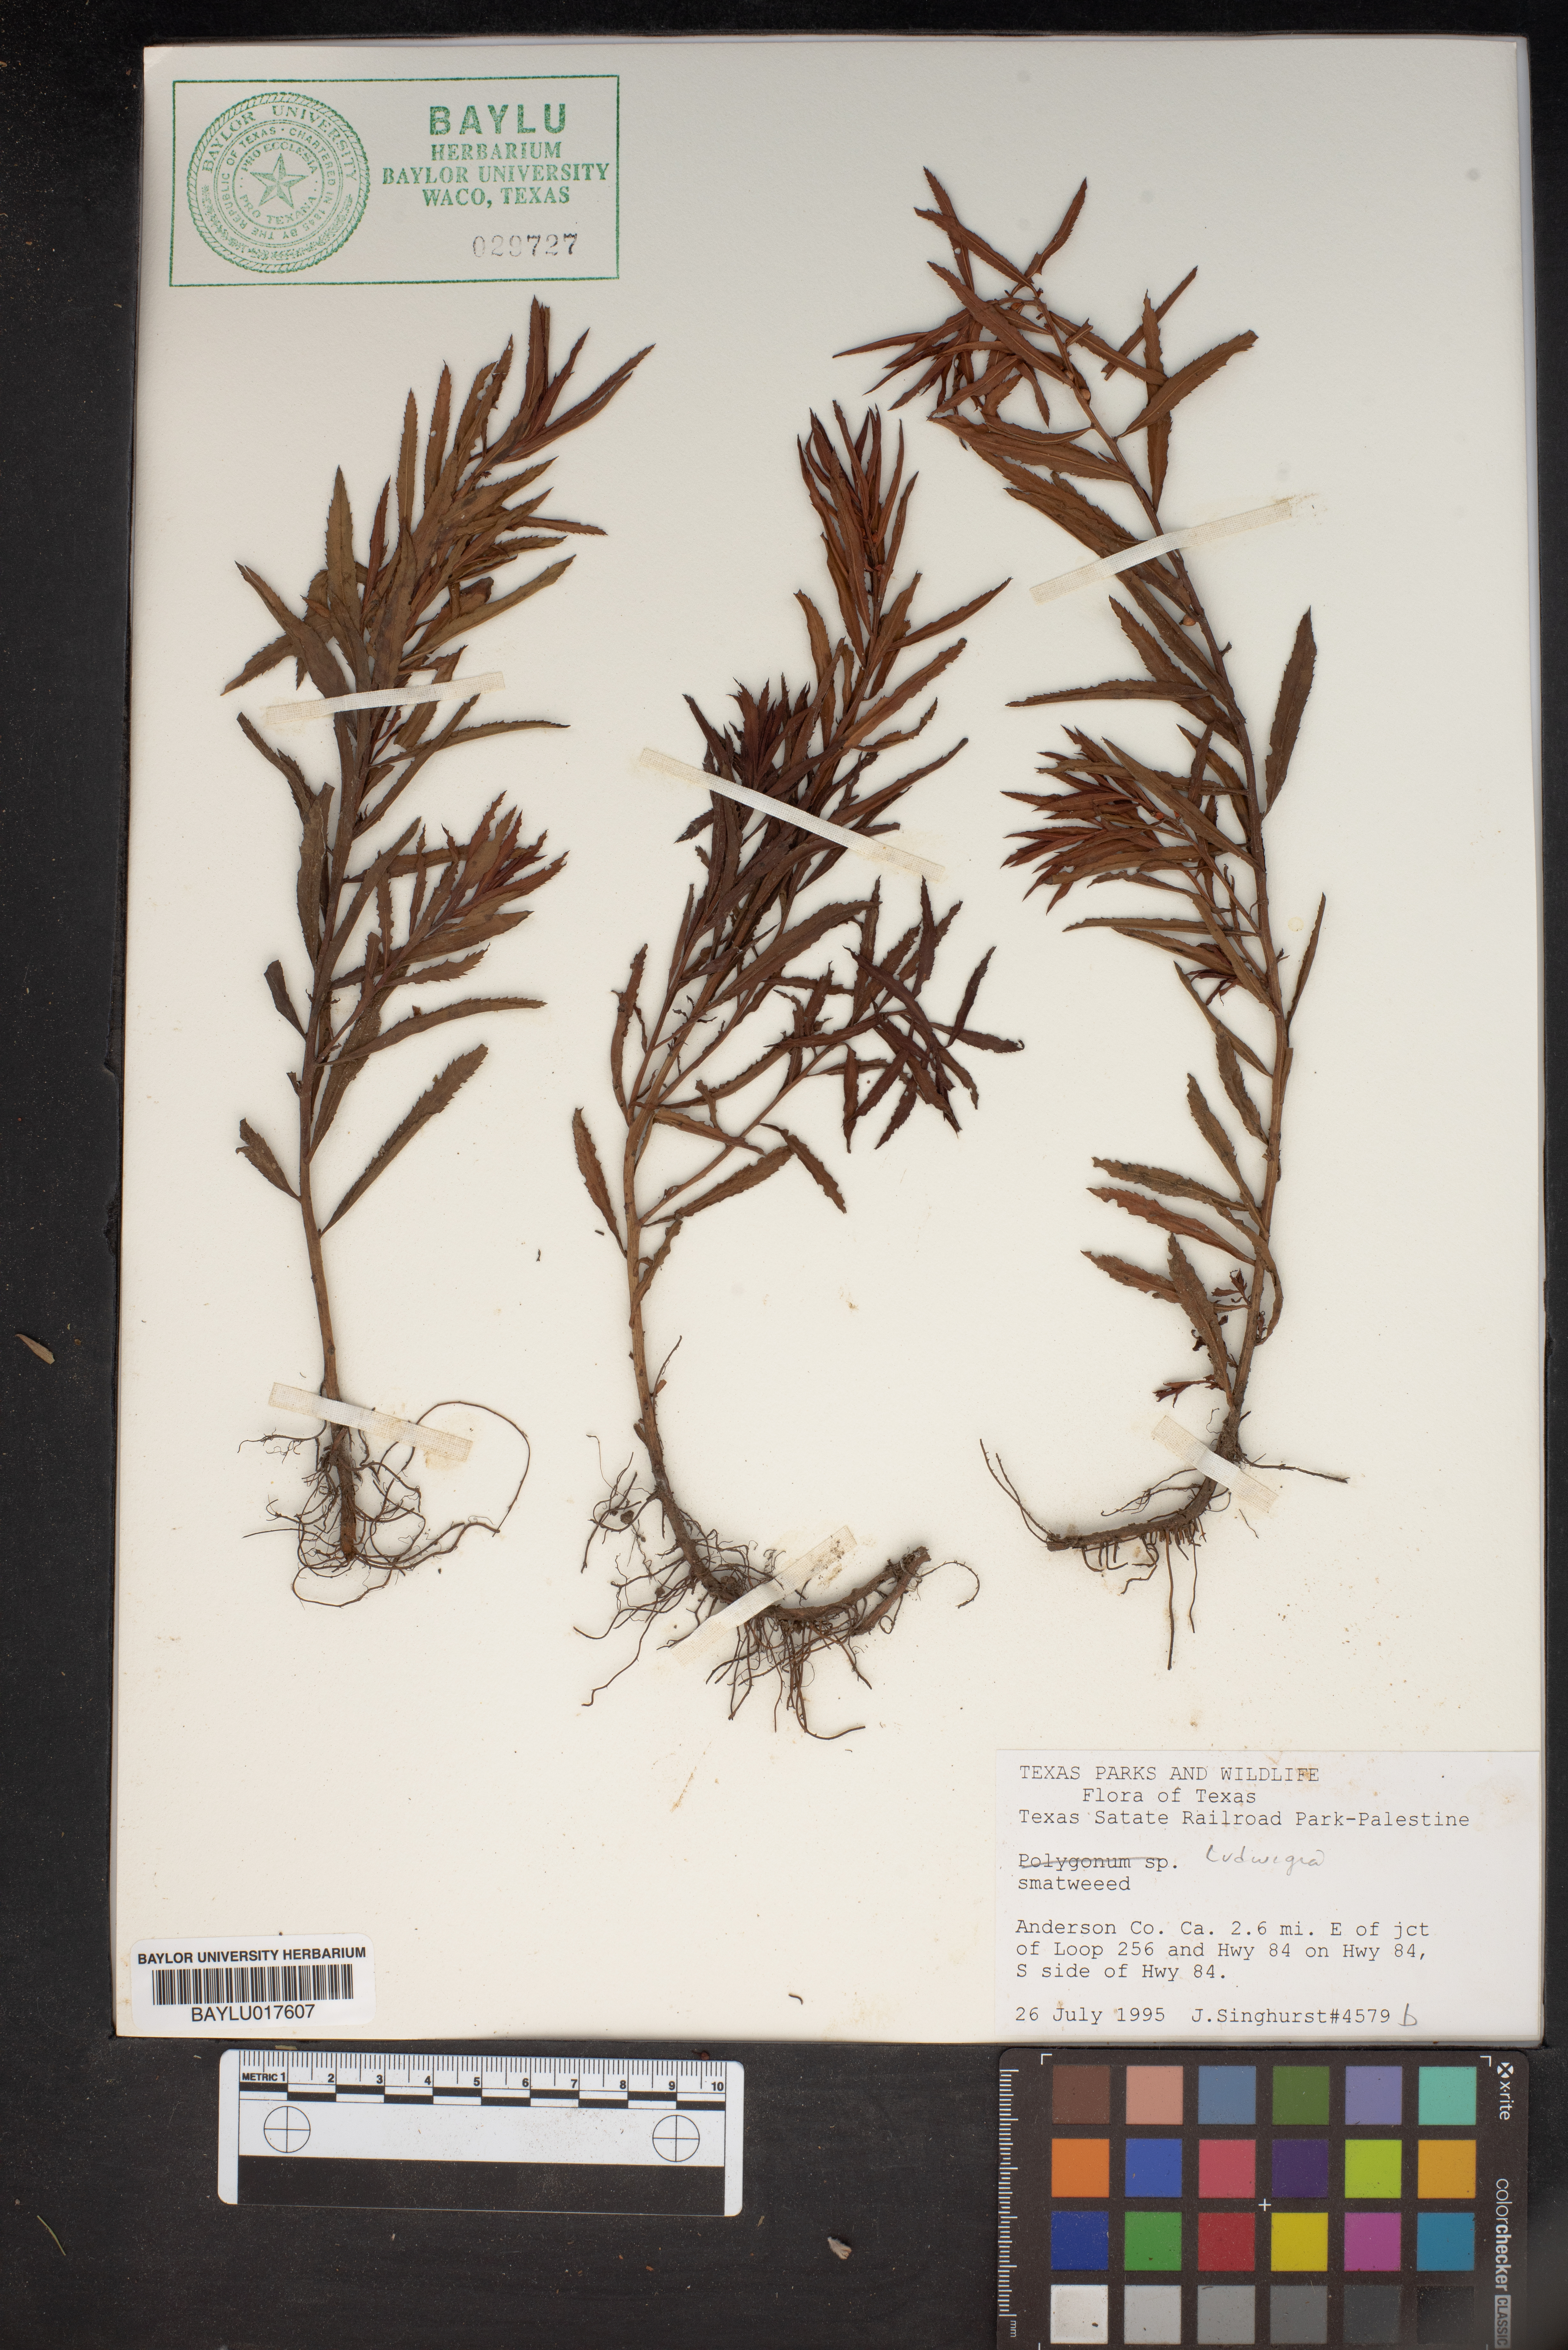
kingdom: Plantae
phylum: Tracheophyta
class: Magnoliopsida
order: Myrtales
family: Onagraceae
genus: Ludwigia
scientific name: Ludwigia
